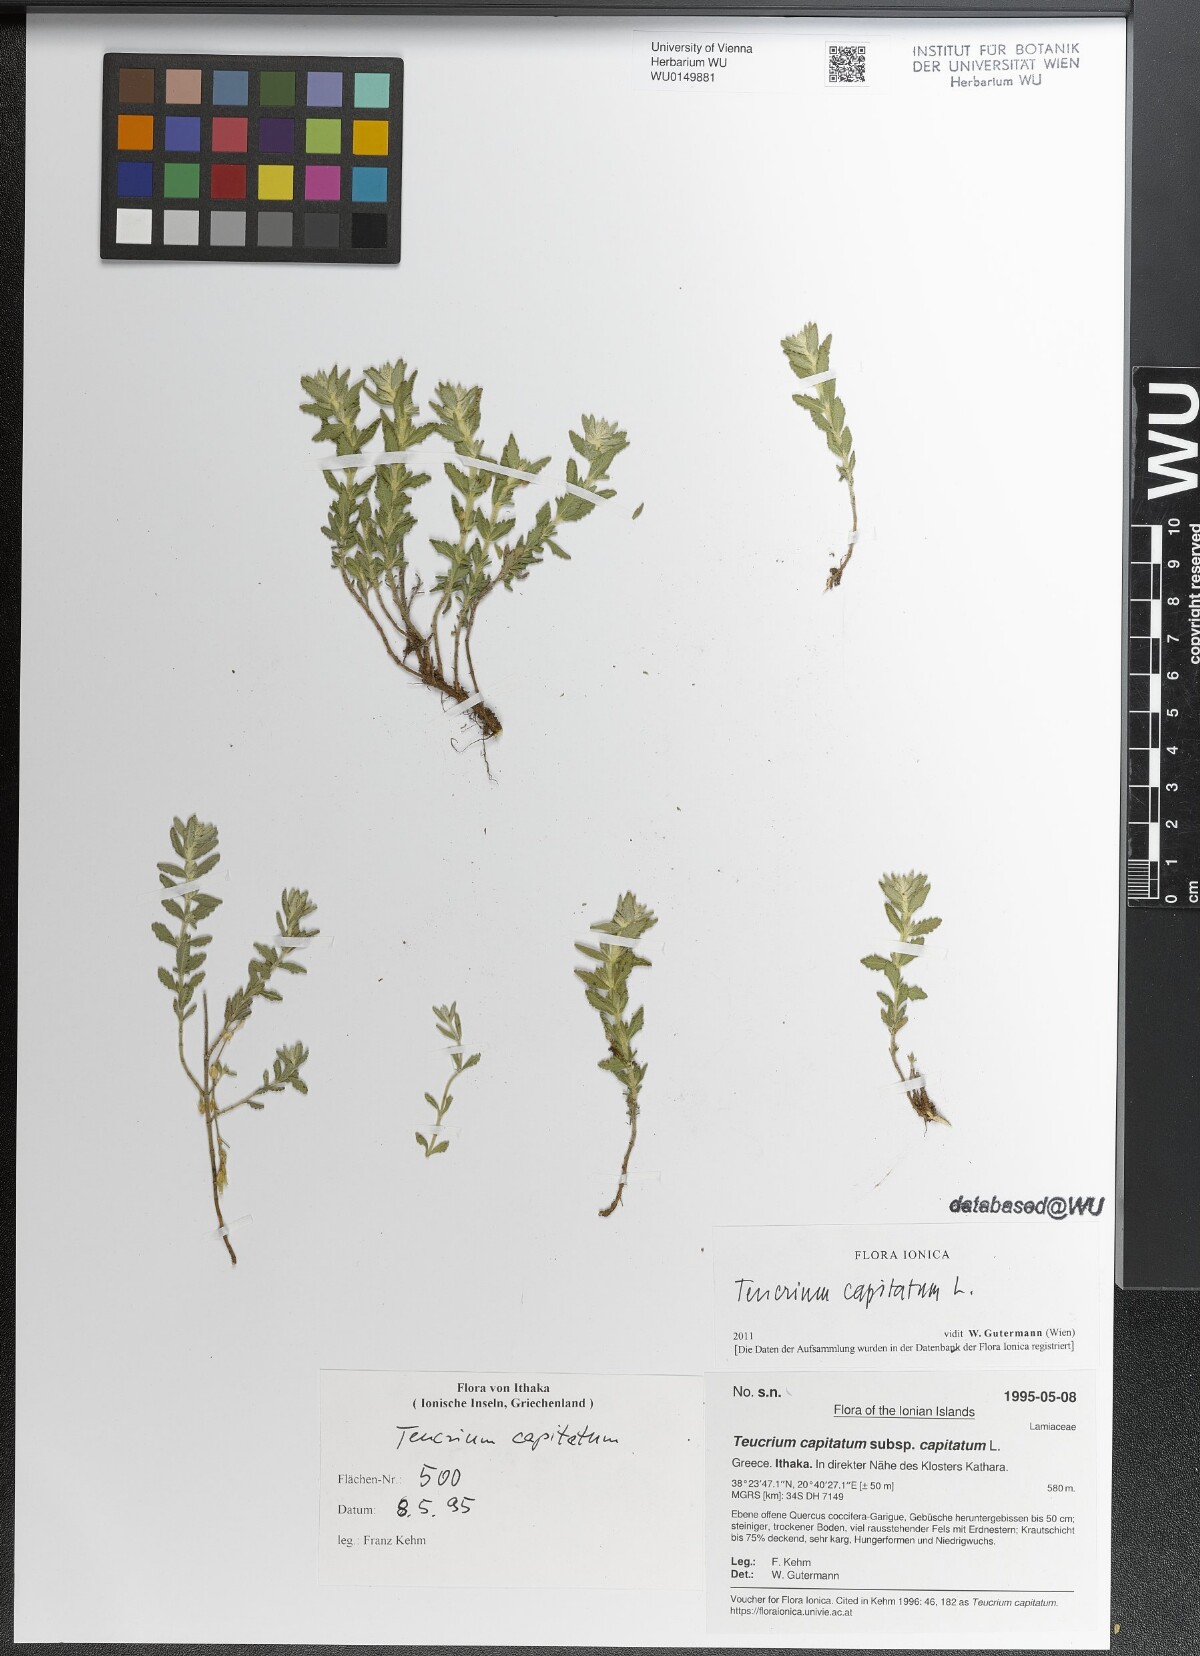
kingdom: Plantae
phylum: Tracheophyta
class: Magnoliopsida
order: Lamiales
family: Lamiaceae
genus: Teucrium
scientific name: Teucrium capitatum
